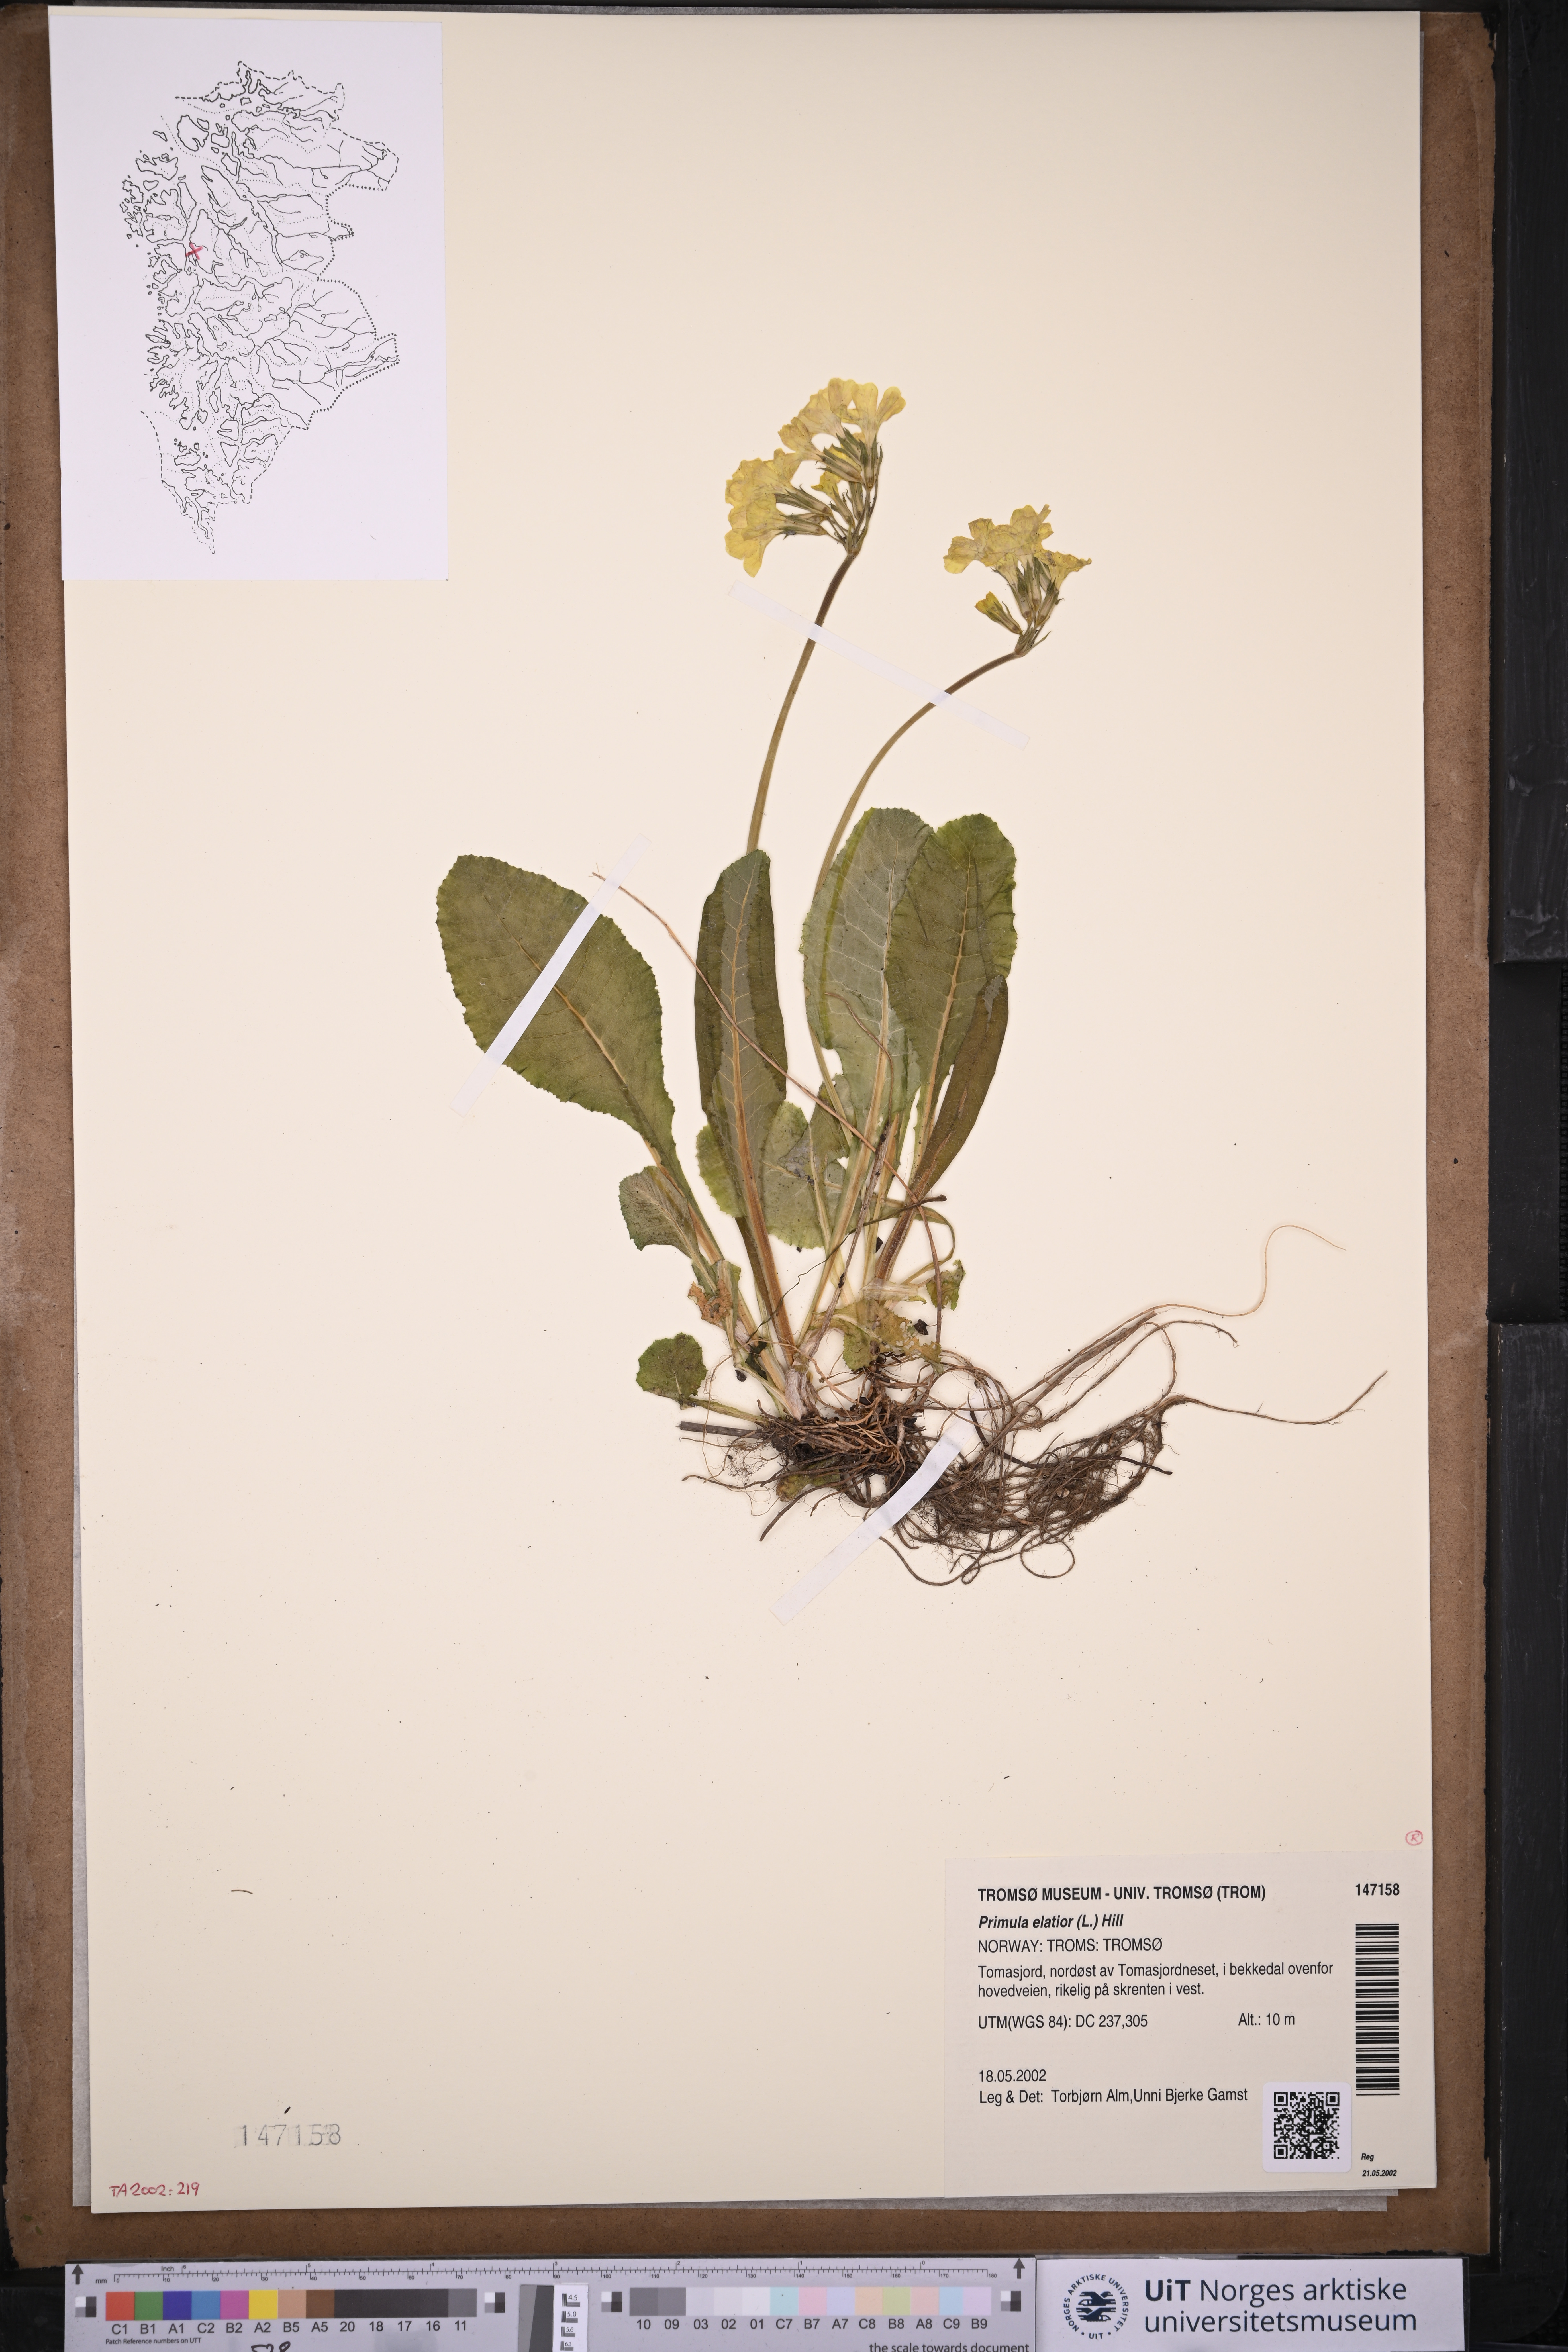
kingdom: Plantae
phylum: Tracheophyta
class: Magnoliopsida
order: Ericales
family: Primulaceae
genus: Primula
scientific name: Primula elatior
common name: Oxlip
